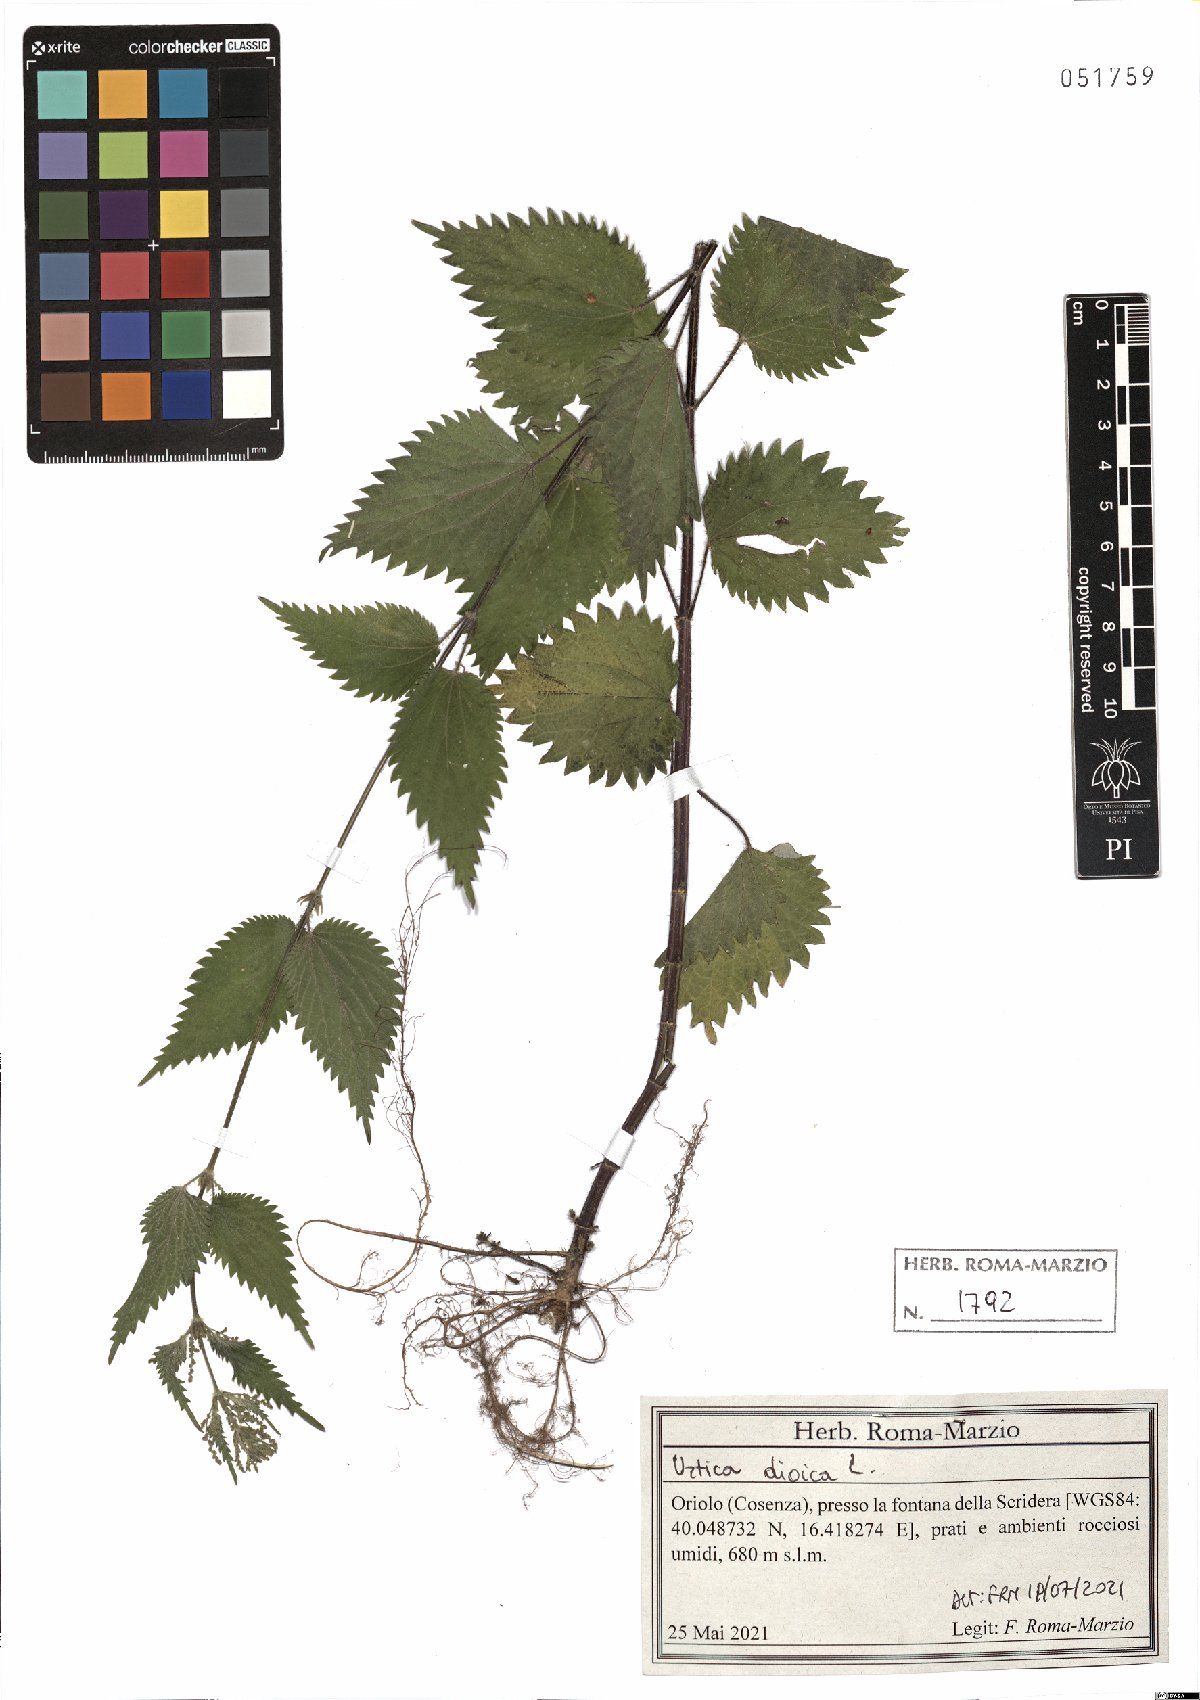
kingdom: Plantae
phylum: Tracheophyta
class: Magnoliopsida
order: Rosales
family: Urticaceae
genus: Urtica
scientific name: Urtica dioica
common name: Common nettle
